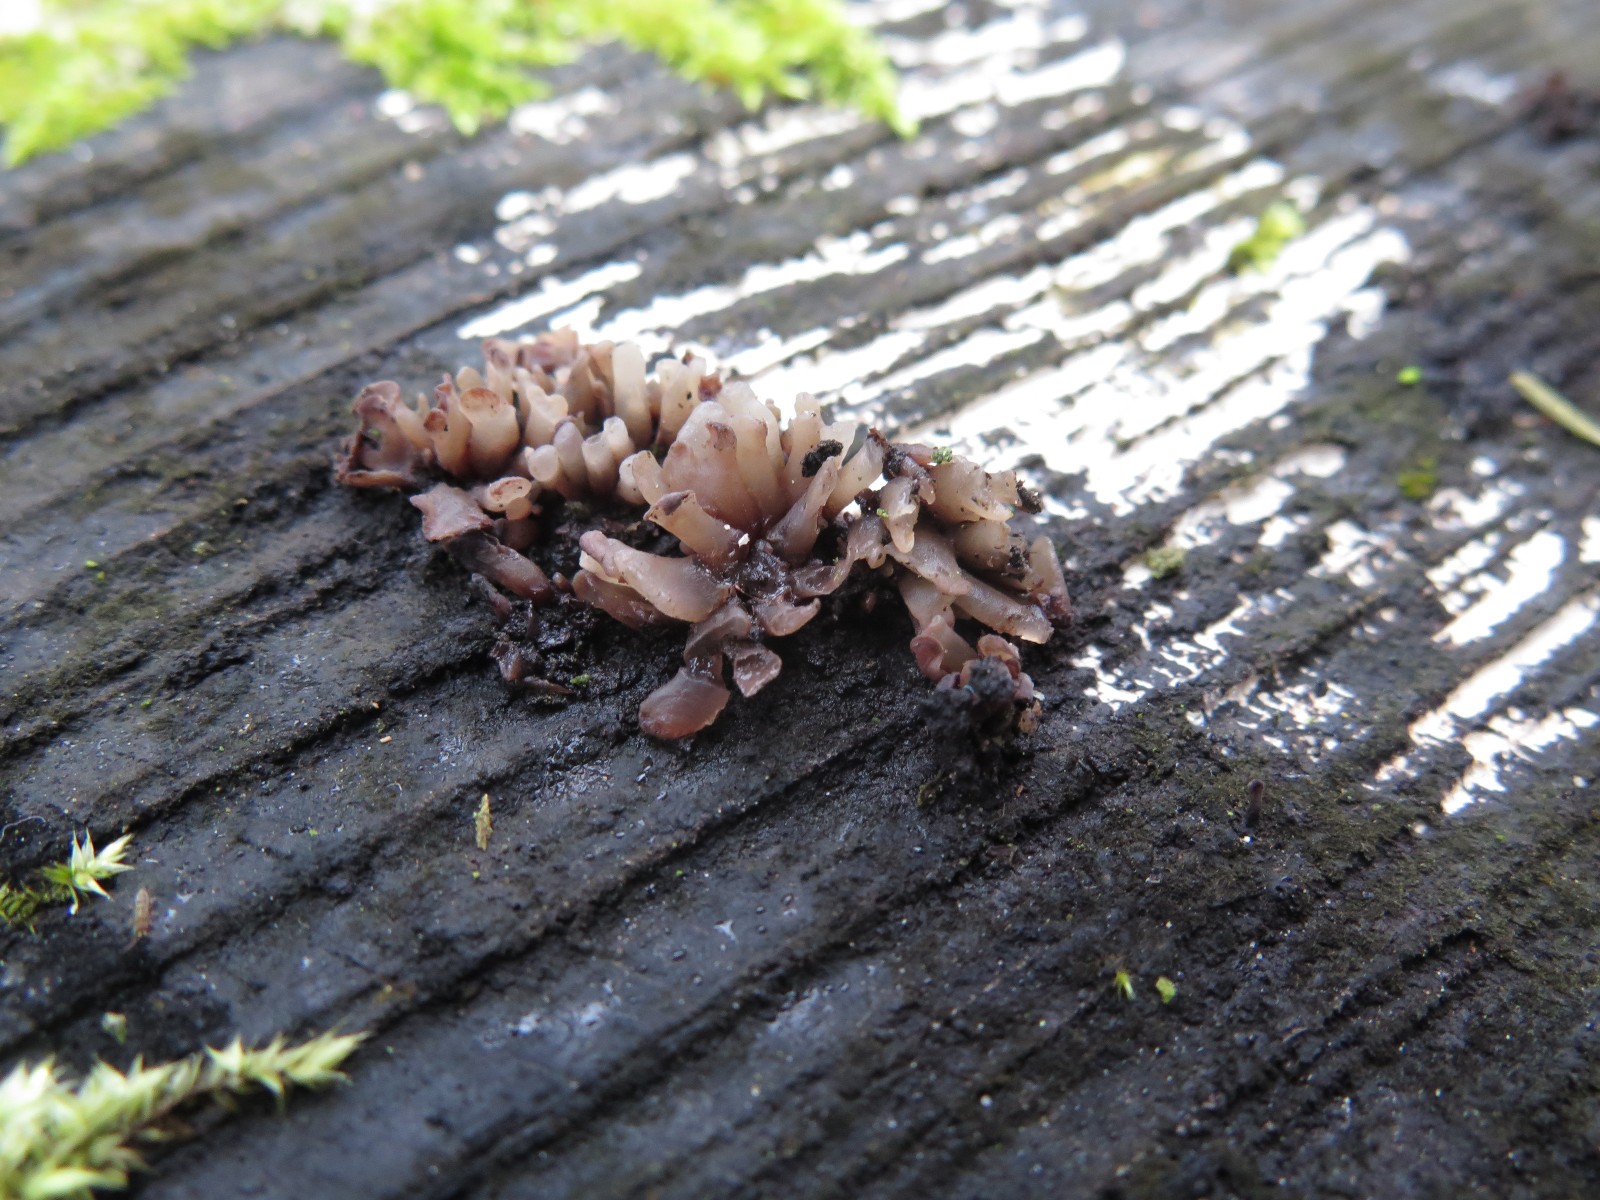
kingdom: Fungi
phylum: Ascomycota
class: Leotiomycetes
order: Helotiales
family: Gelatinodiscaceae
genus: Ascocoryne
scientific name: Ascocoryne sarcoides
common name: rødlilla sejskive
